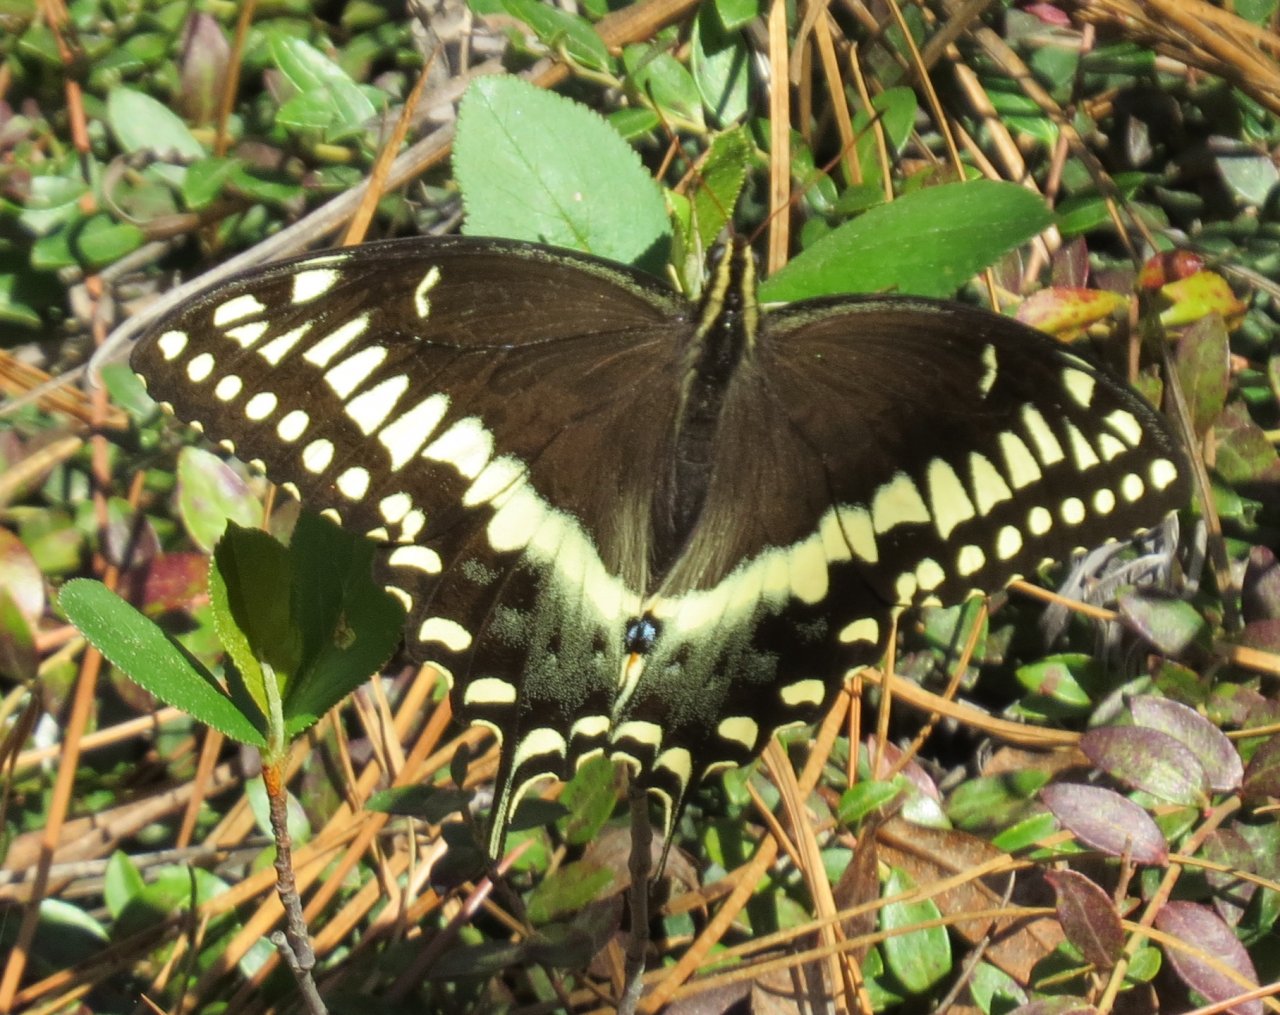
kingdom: Animalia
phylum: Arthropoda
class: Insecta
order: Lepidoptera
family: Papilionidae
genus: Pterourus
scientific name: Pterourus palamedes
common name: Palamedes Swallowtail
